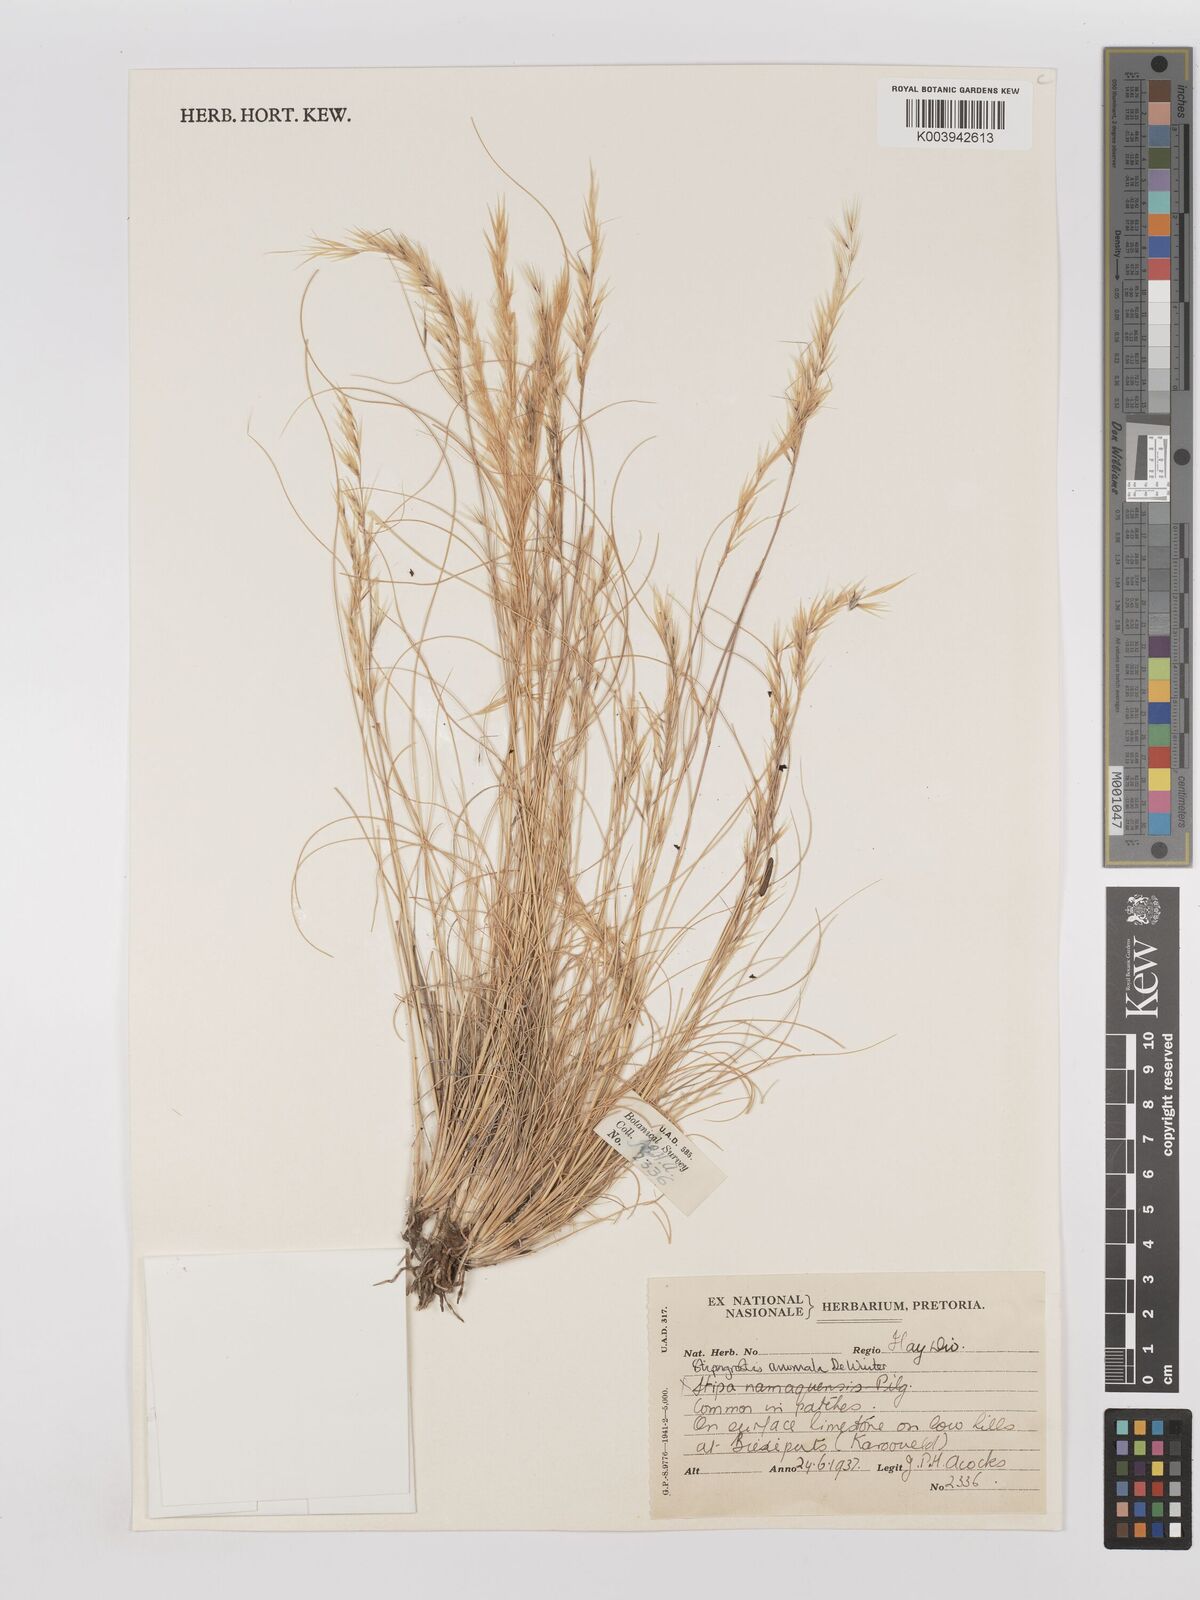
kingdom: Plantae
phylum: Tracheophyta
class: Liliopsida
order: Poales
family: Poaceae
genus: Stipagrostis
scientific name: Stipagrostis anomala
